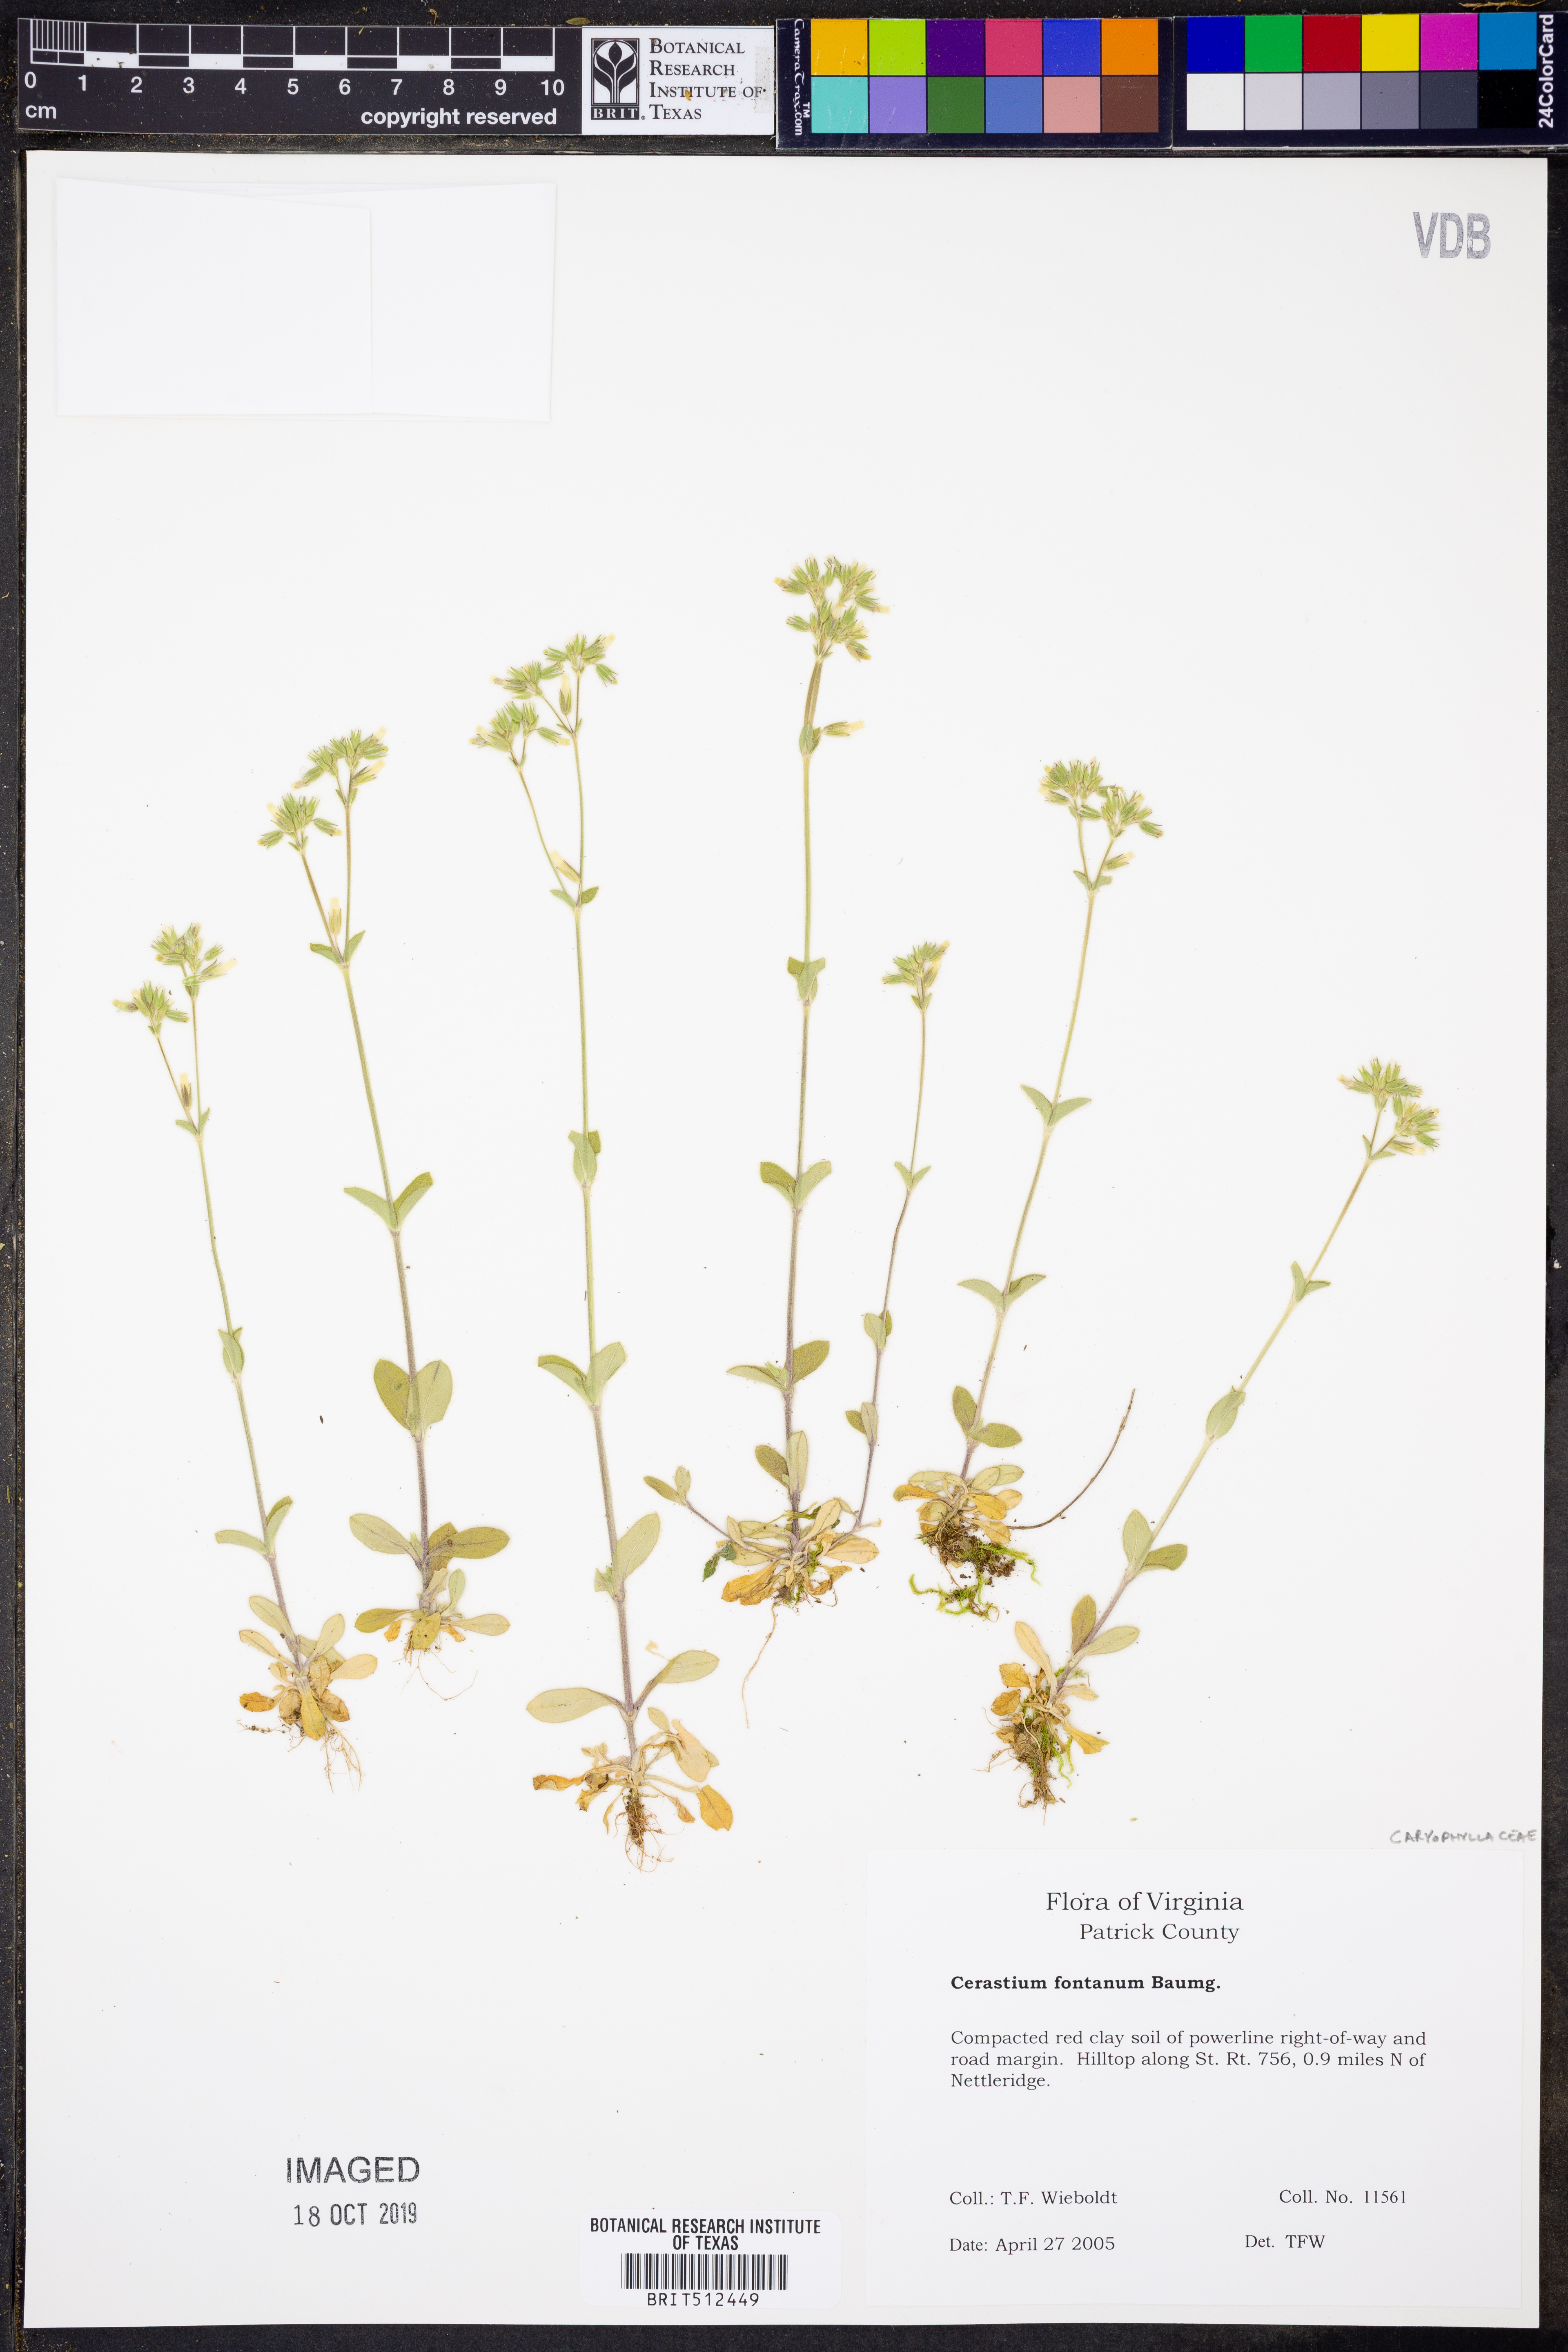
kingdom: Plantae
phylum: Tracheophyta
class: Magnoliopsida
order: Caryophyllales
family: Caryophyllaceae
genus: Cerastium
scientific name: Cerastium fontanum
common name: Common mouse-ear
